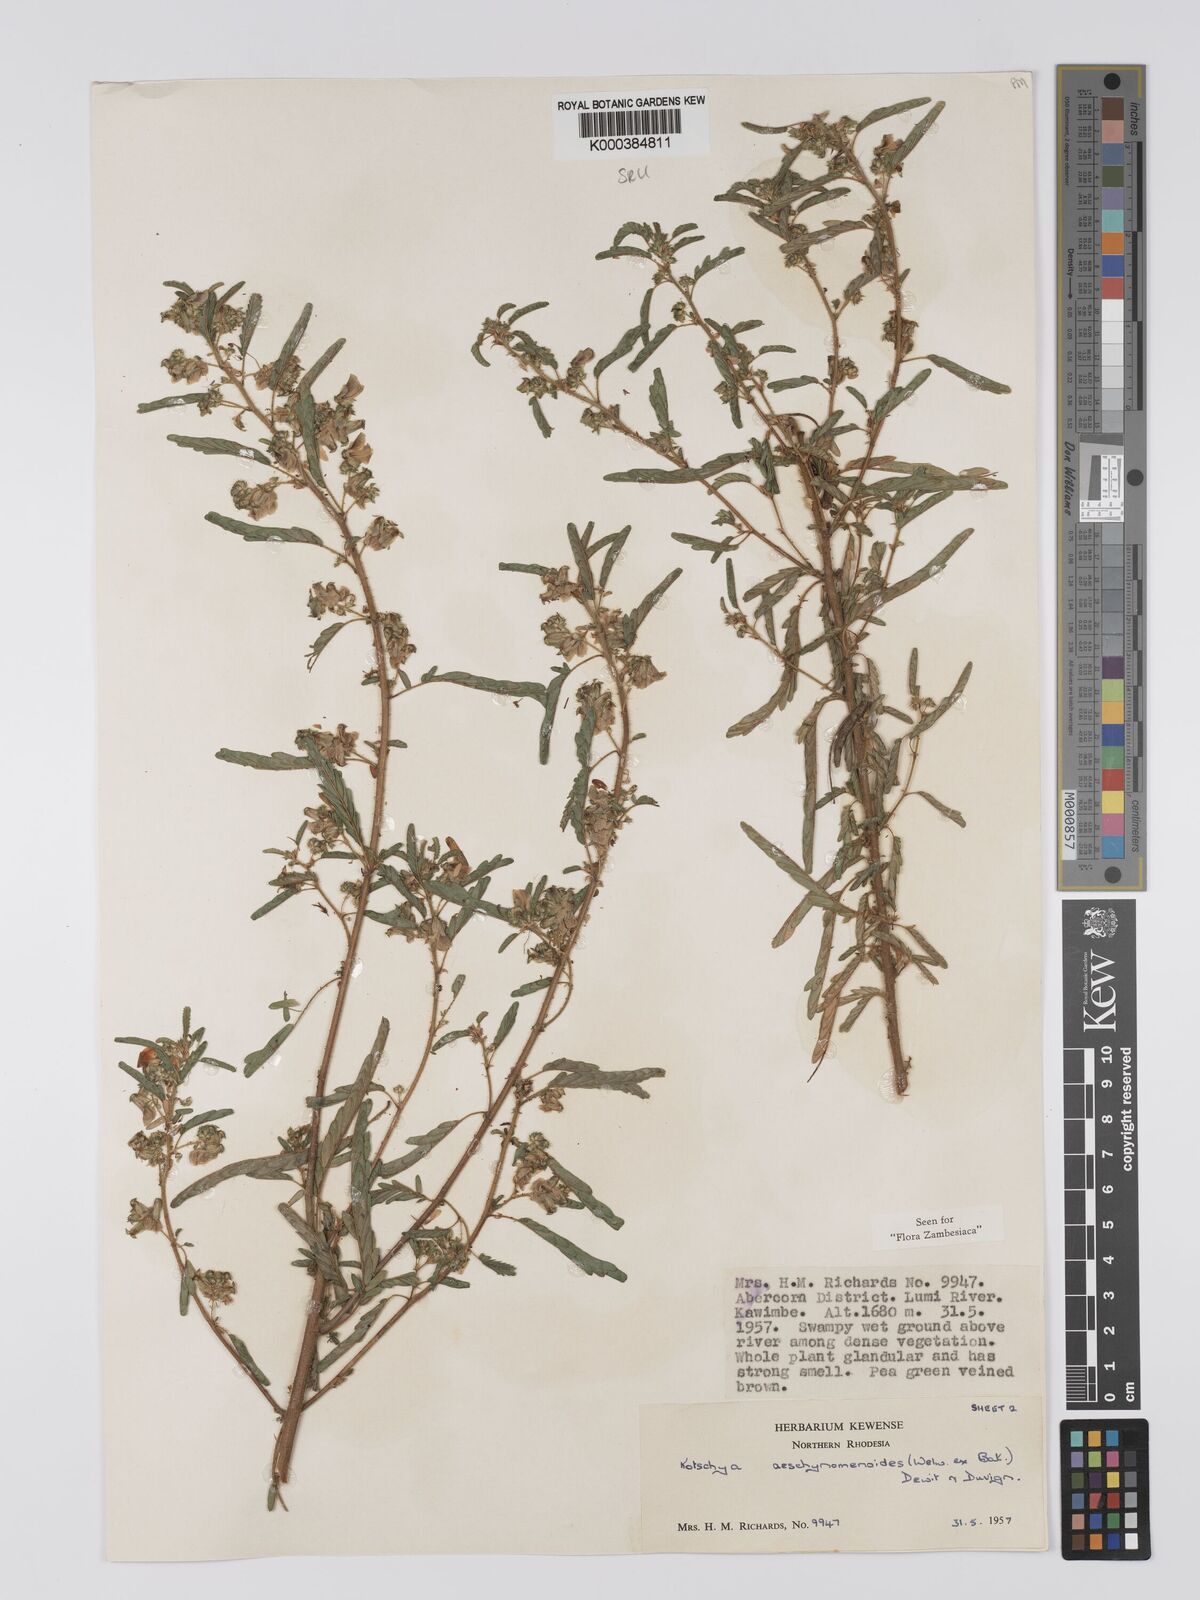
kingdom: Plantae
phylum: Tracheophyta
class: Magnoliopsida
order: Fabales
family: Fabaceae
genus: Kotschya
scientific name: Kotschya aeschynomenoides
